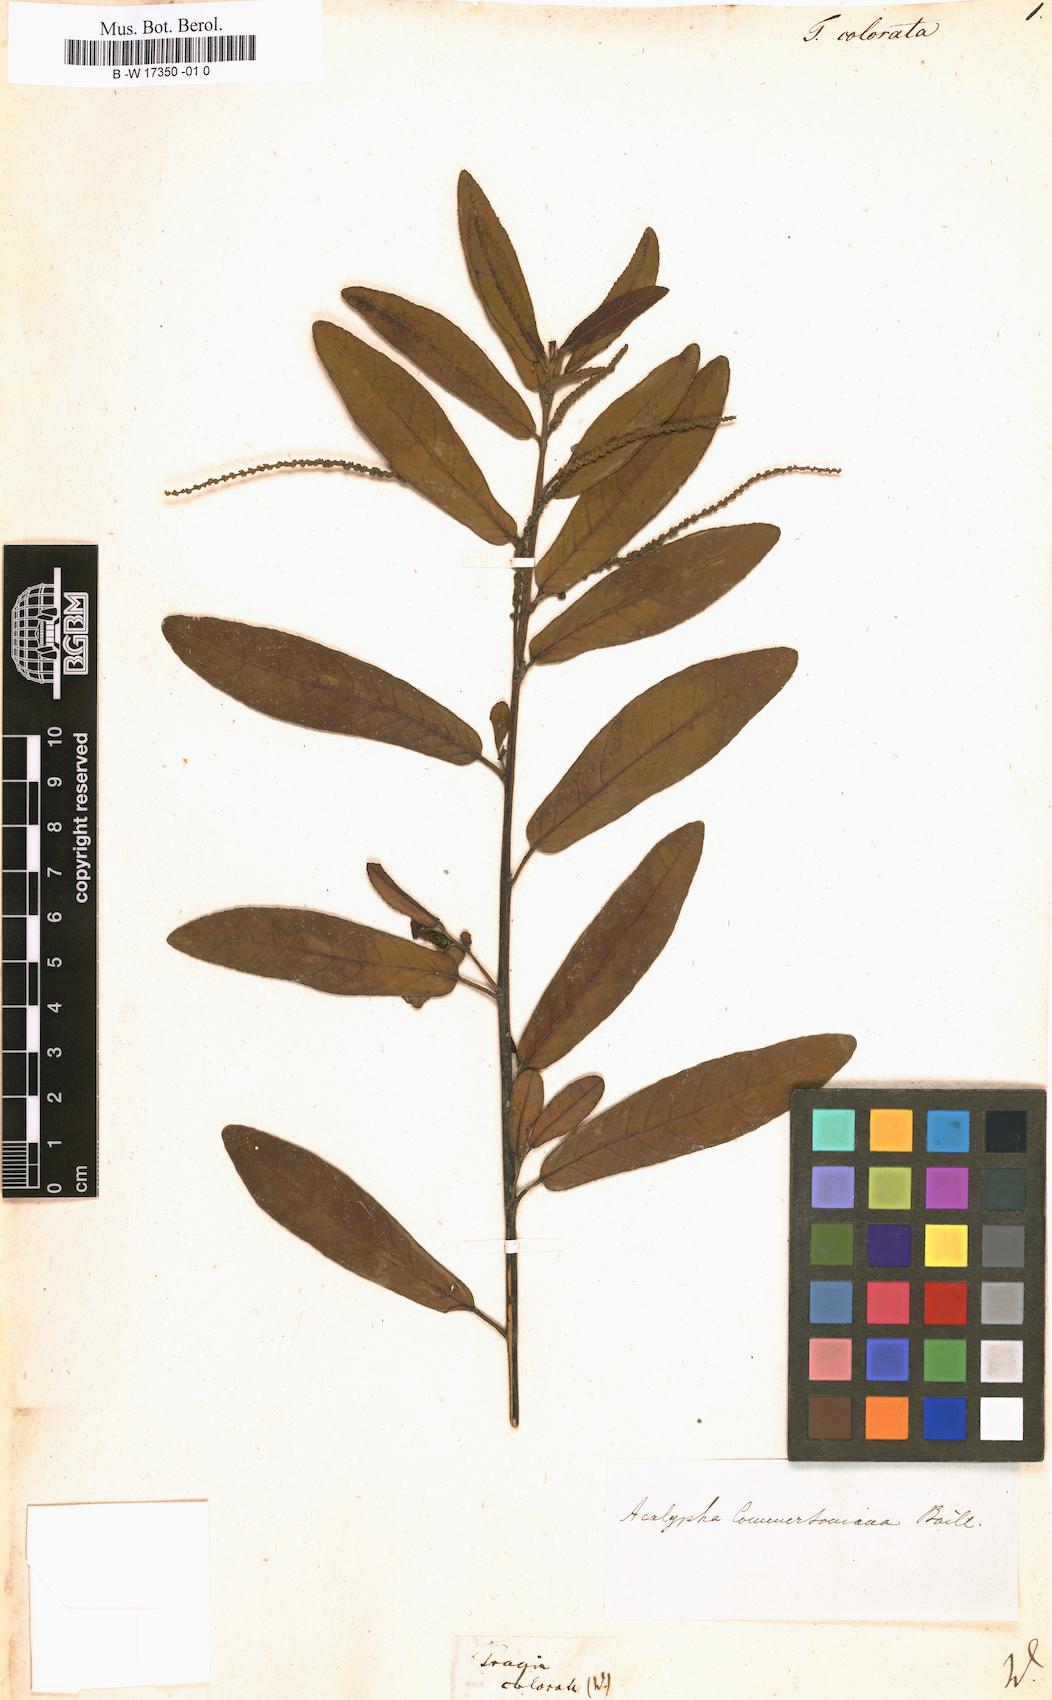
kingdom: Plantae
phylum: Tracheophyta
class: Magnoliopsida
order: Malpighiales
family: Euphorbiaceae
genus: Acalypha
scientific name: Acalypha integrifolia
